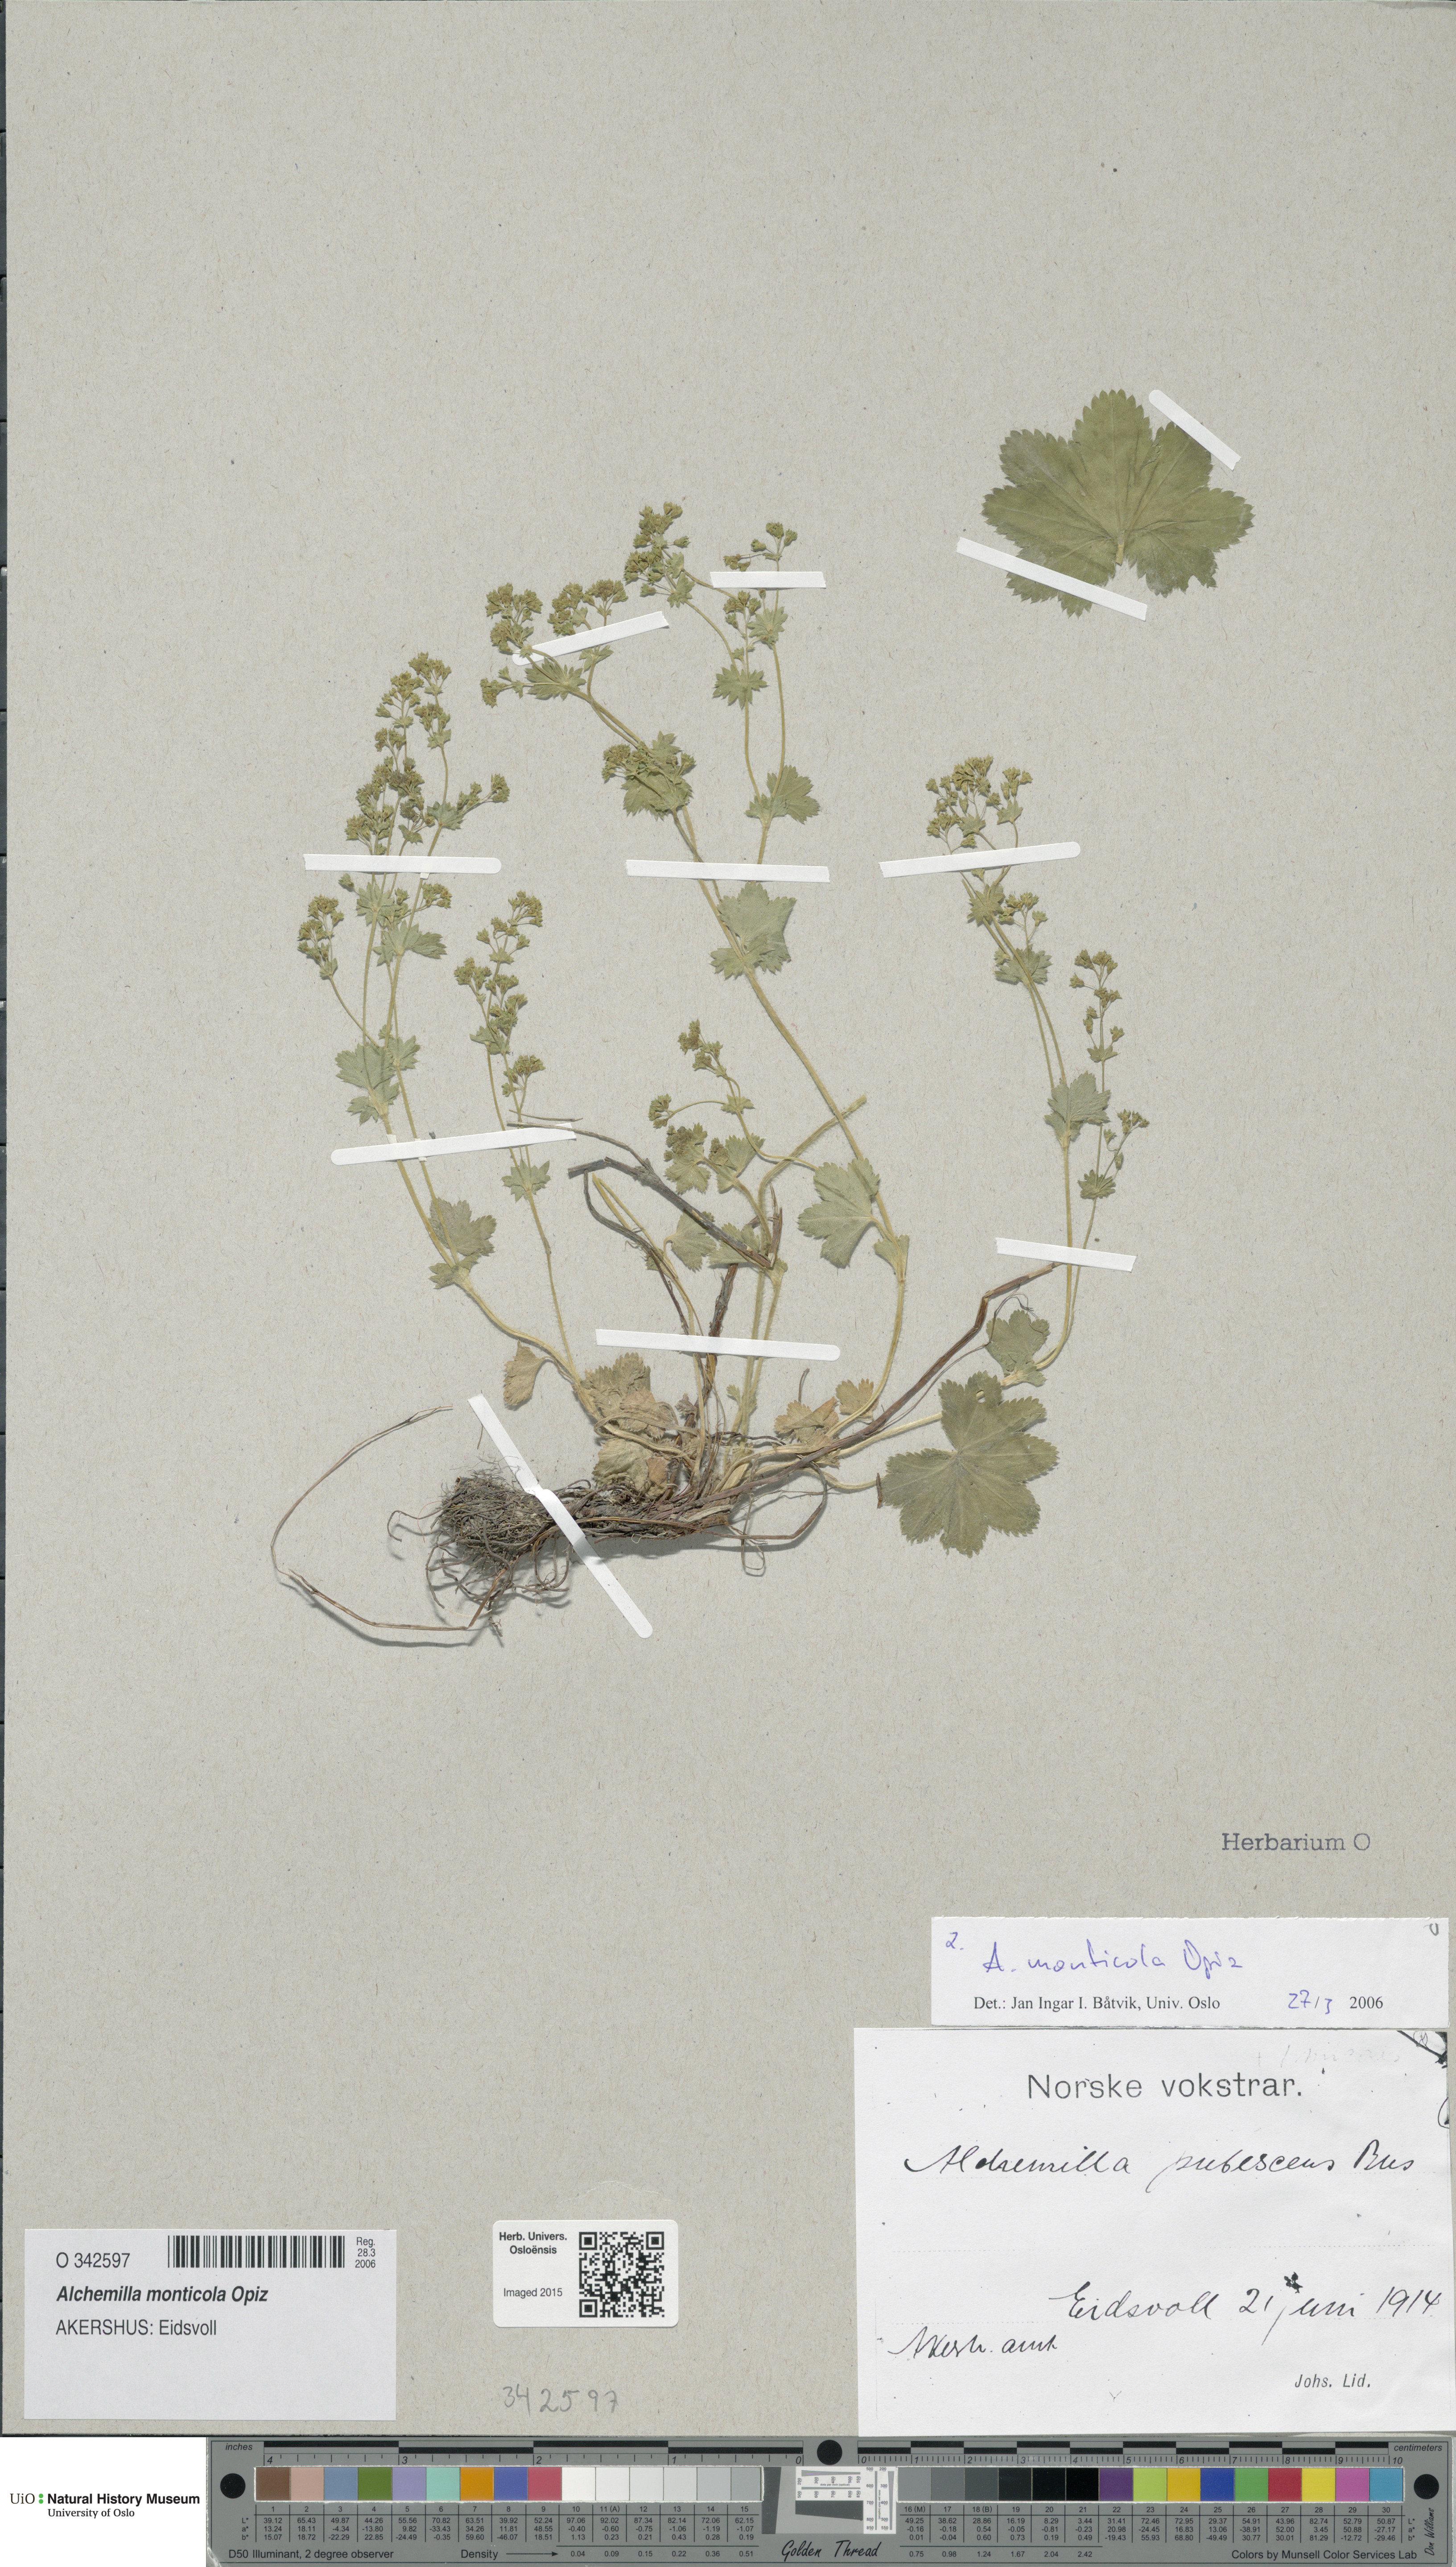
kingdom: Plantae
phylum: Tracheophyta
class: Magnoliopsida
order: Rosales
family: Rosaceae
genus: Alchemilla
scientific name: Alchemilla monticola
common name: Hairy lady's mantle
